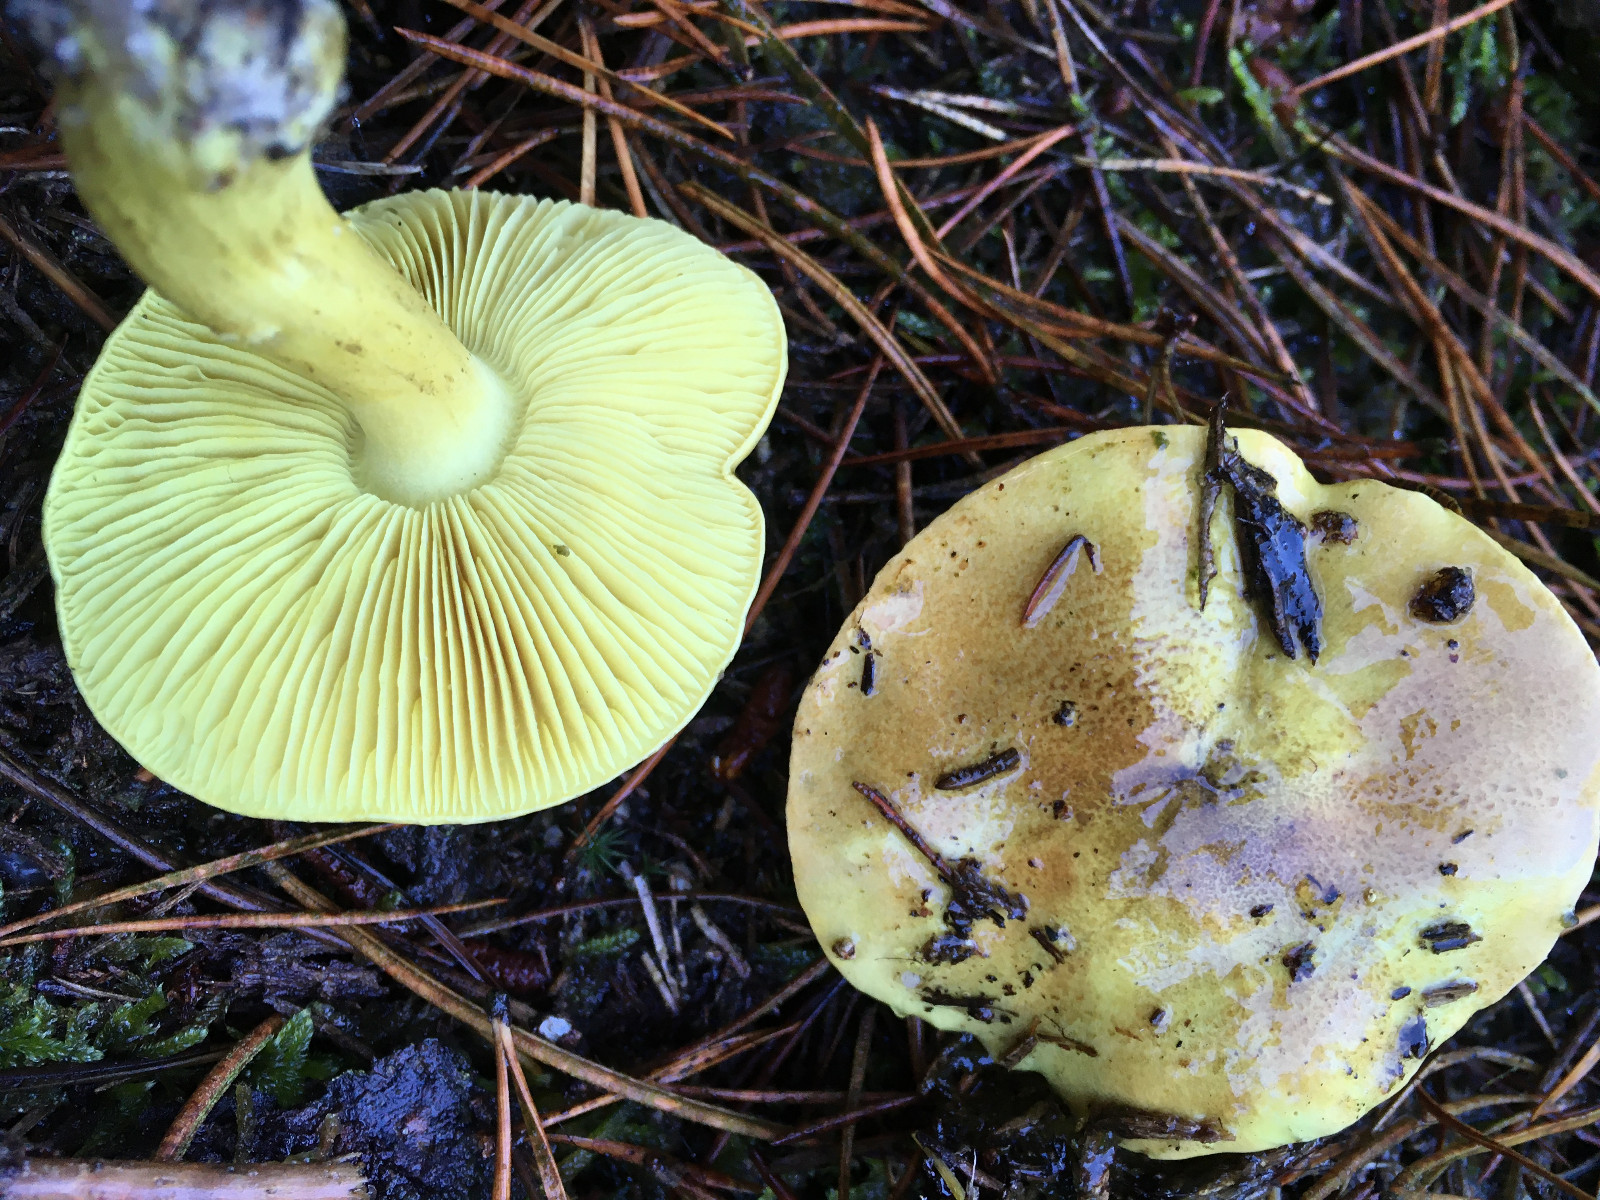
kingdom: Fungi
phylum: Basidiomycota
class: Agaricomycetes
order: Agaricales
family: Tricholomataceae
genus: Tricholoma
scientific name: Tricholoma equestre
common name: ægte ridderhat
